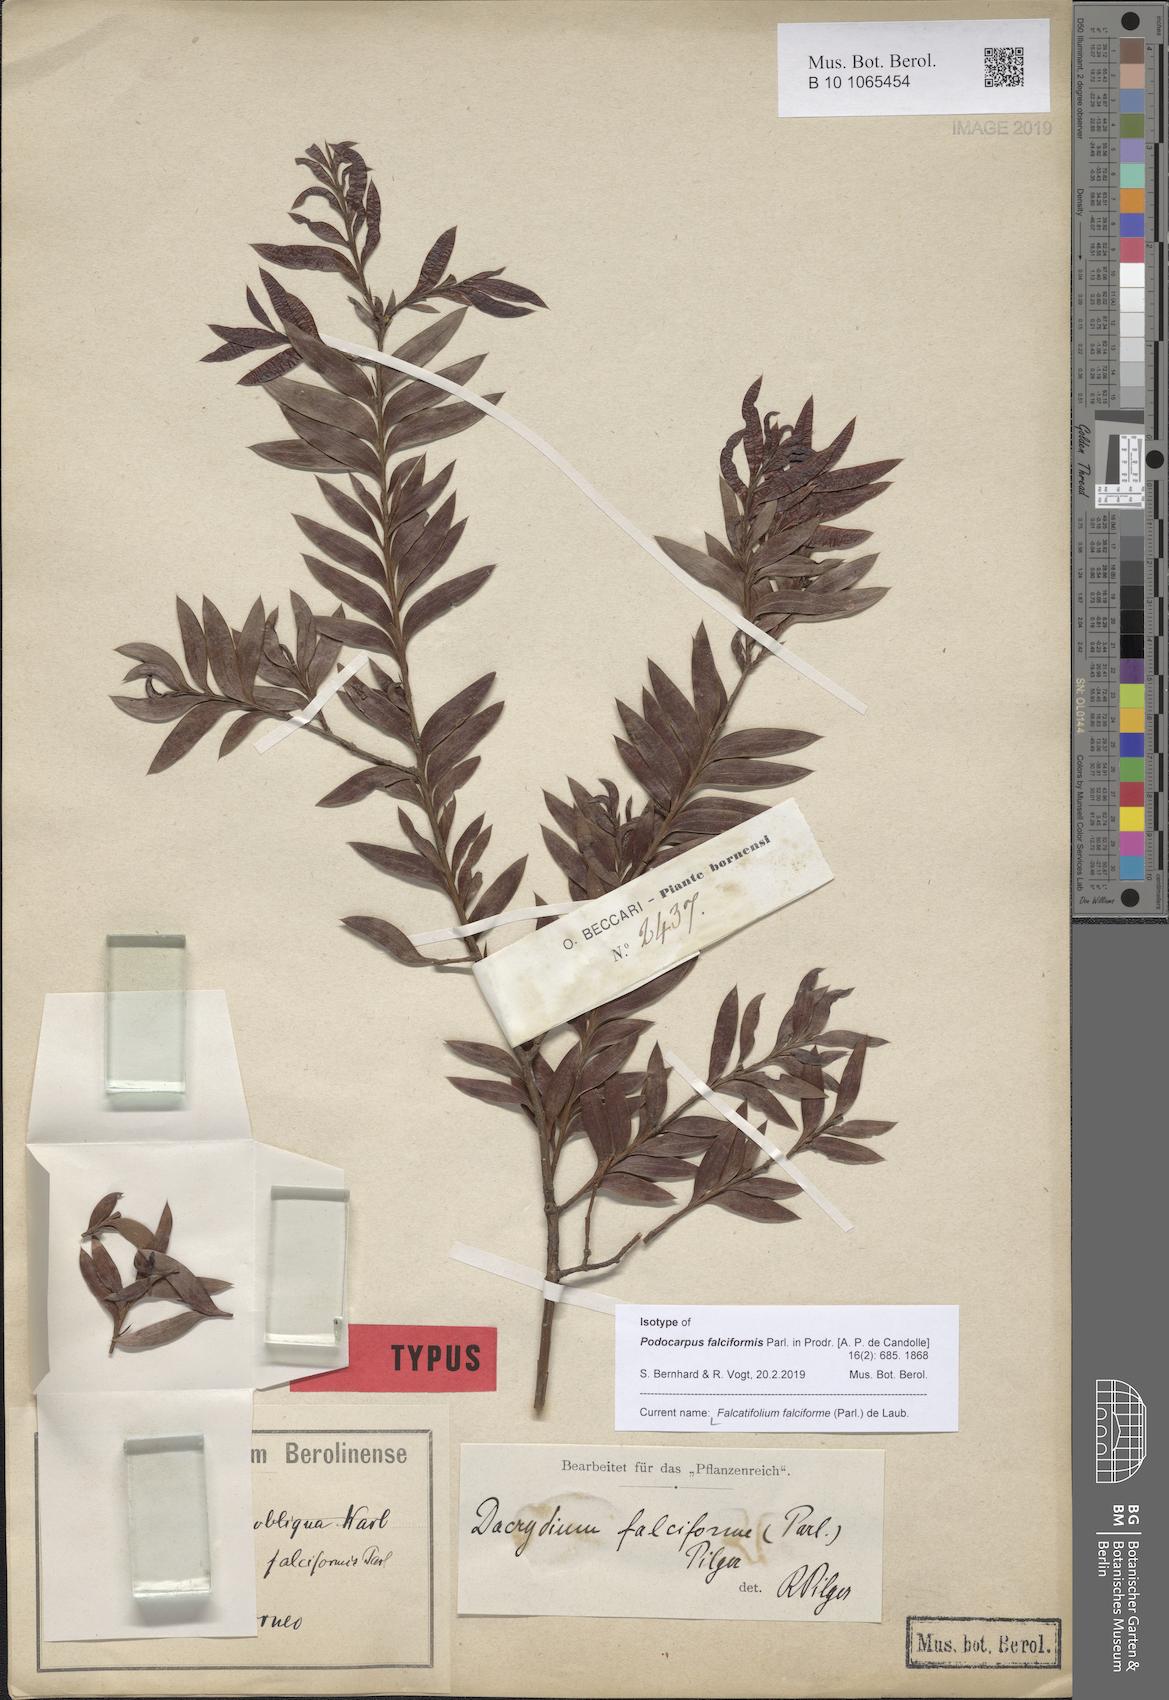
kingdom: Plantae
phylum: Tracheophyta
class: Pinopsida
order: Pinales
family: Podocarpaceae
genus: Falcatifolium
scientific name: Falcatifolium falciforme
